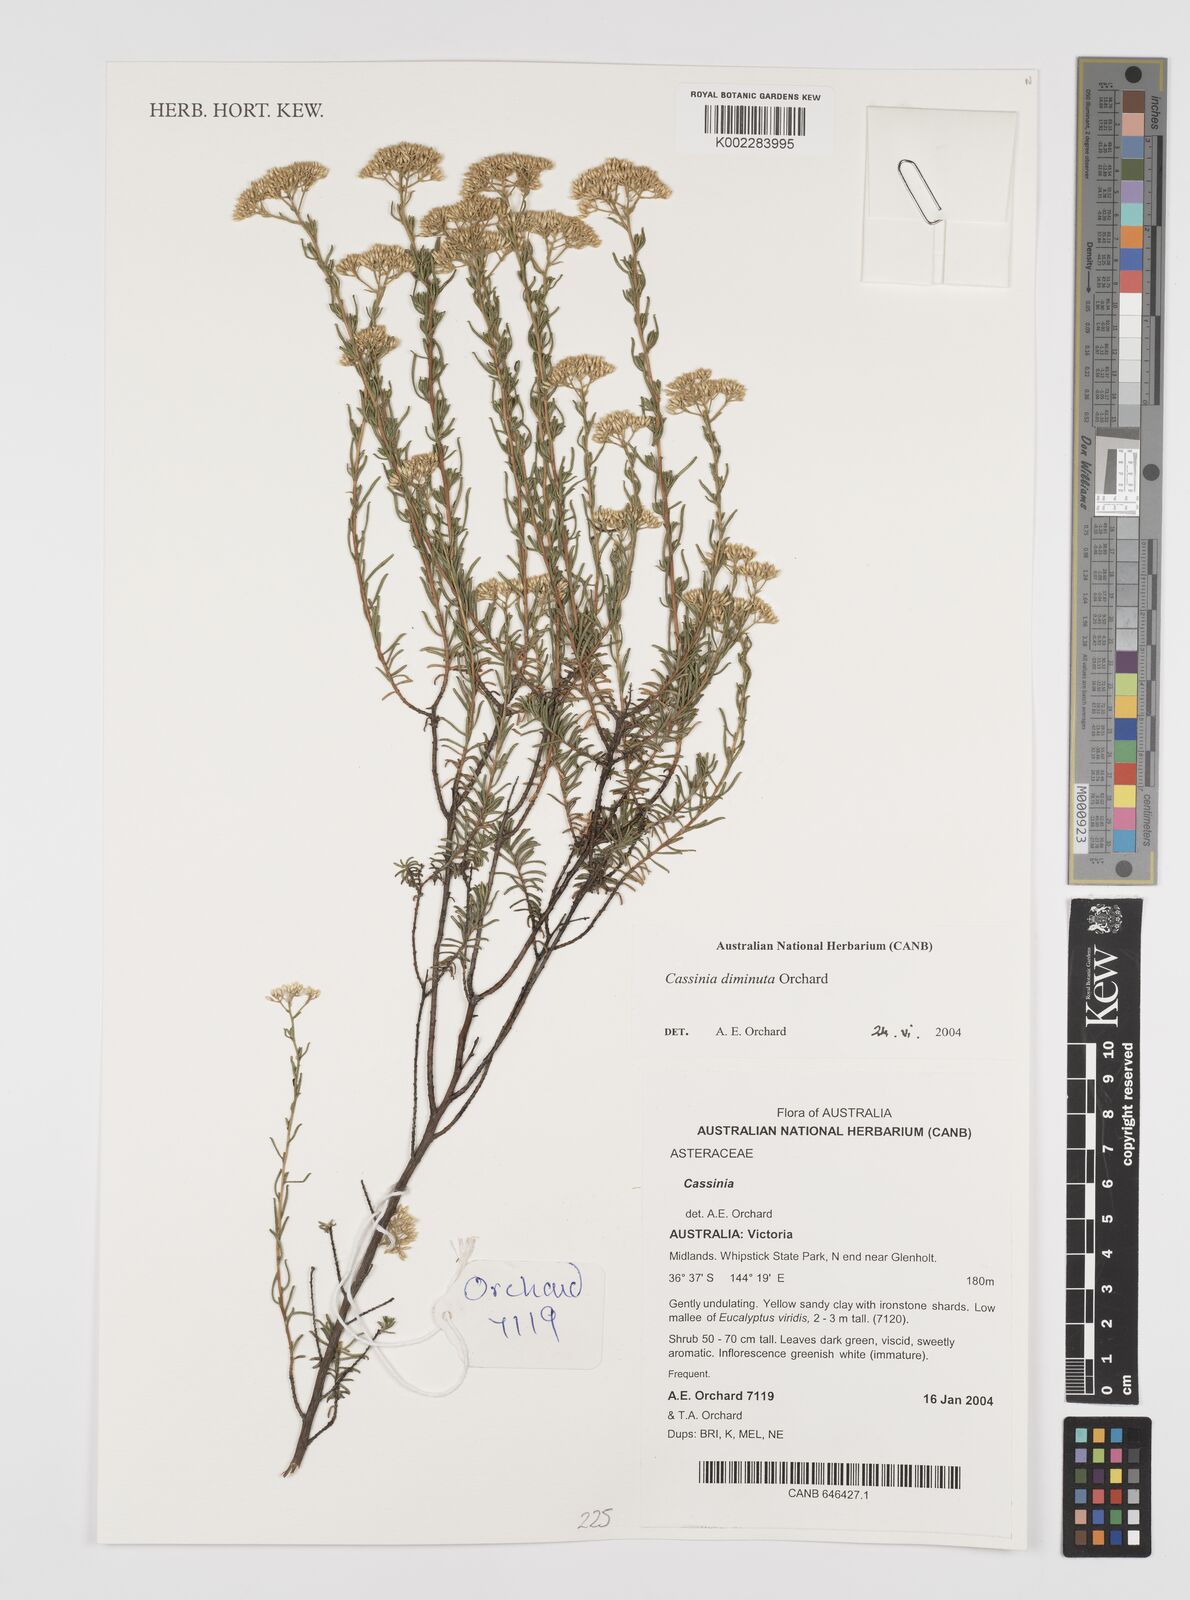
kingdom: Plantae
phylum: Tracheophyta
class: Magnoliopsida
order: Asterales
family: Asteraceae
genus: Cassinia
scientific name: Cassinia diminuta
